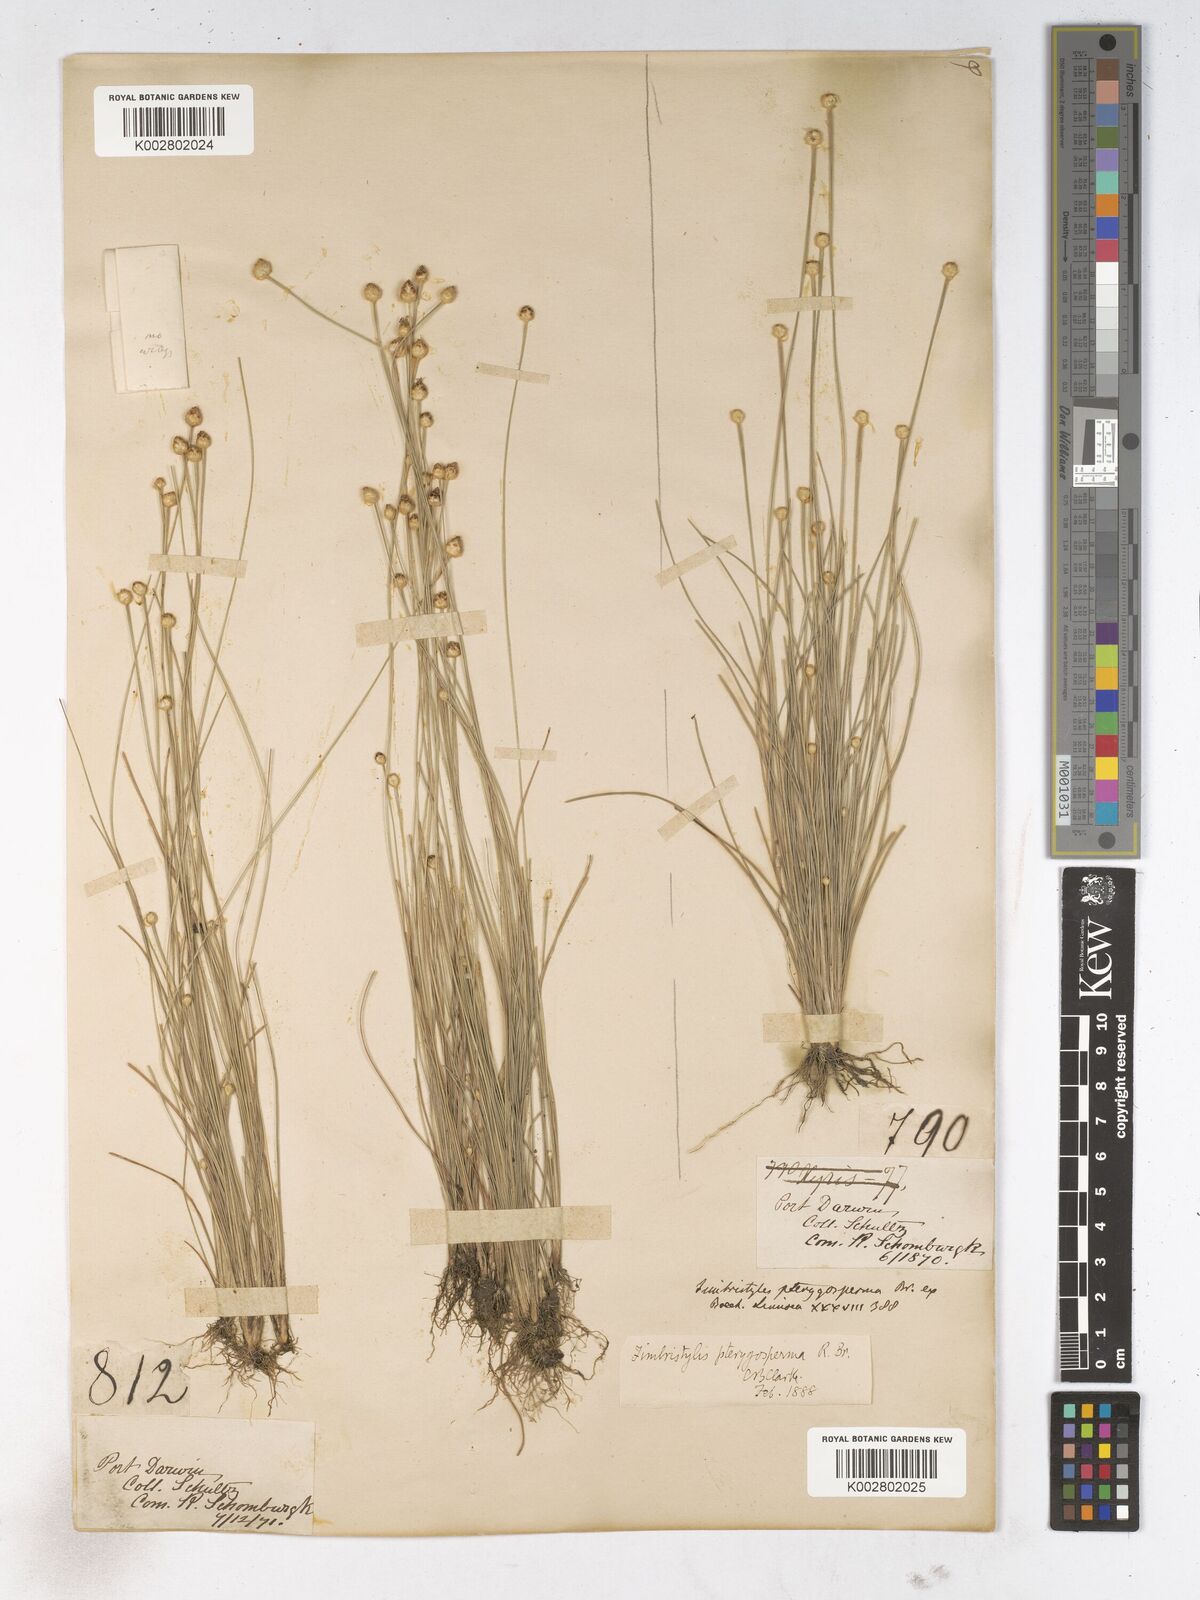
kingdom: Plantae
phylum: Tracheophyta
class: Liliopsida
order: Poales
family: Cyperaceae
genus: Fimbristylis
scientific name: Fimbristylis pterigosperma
